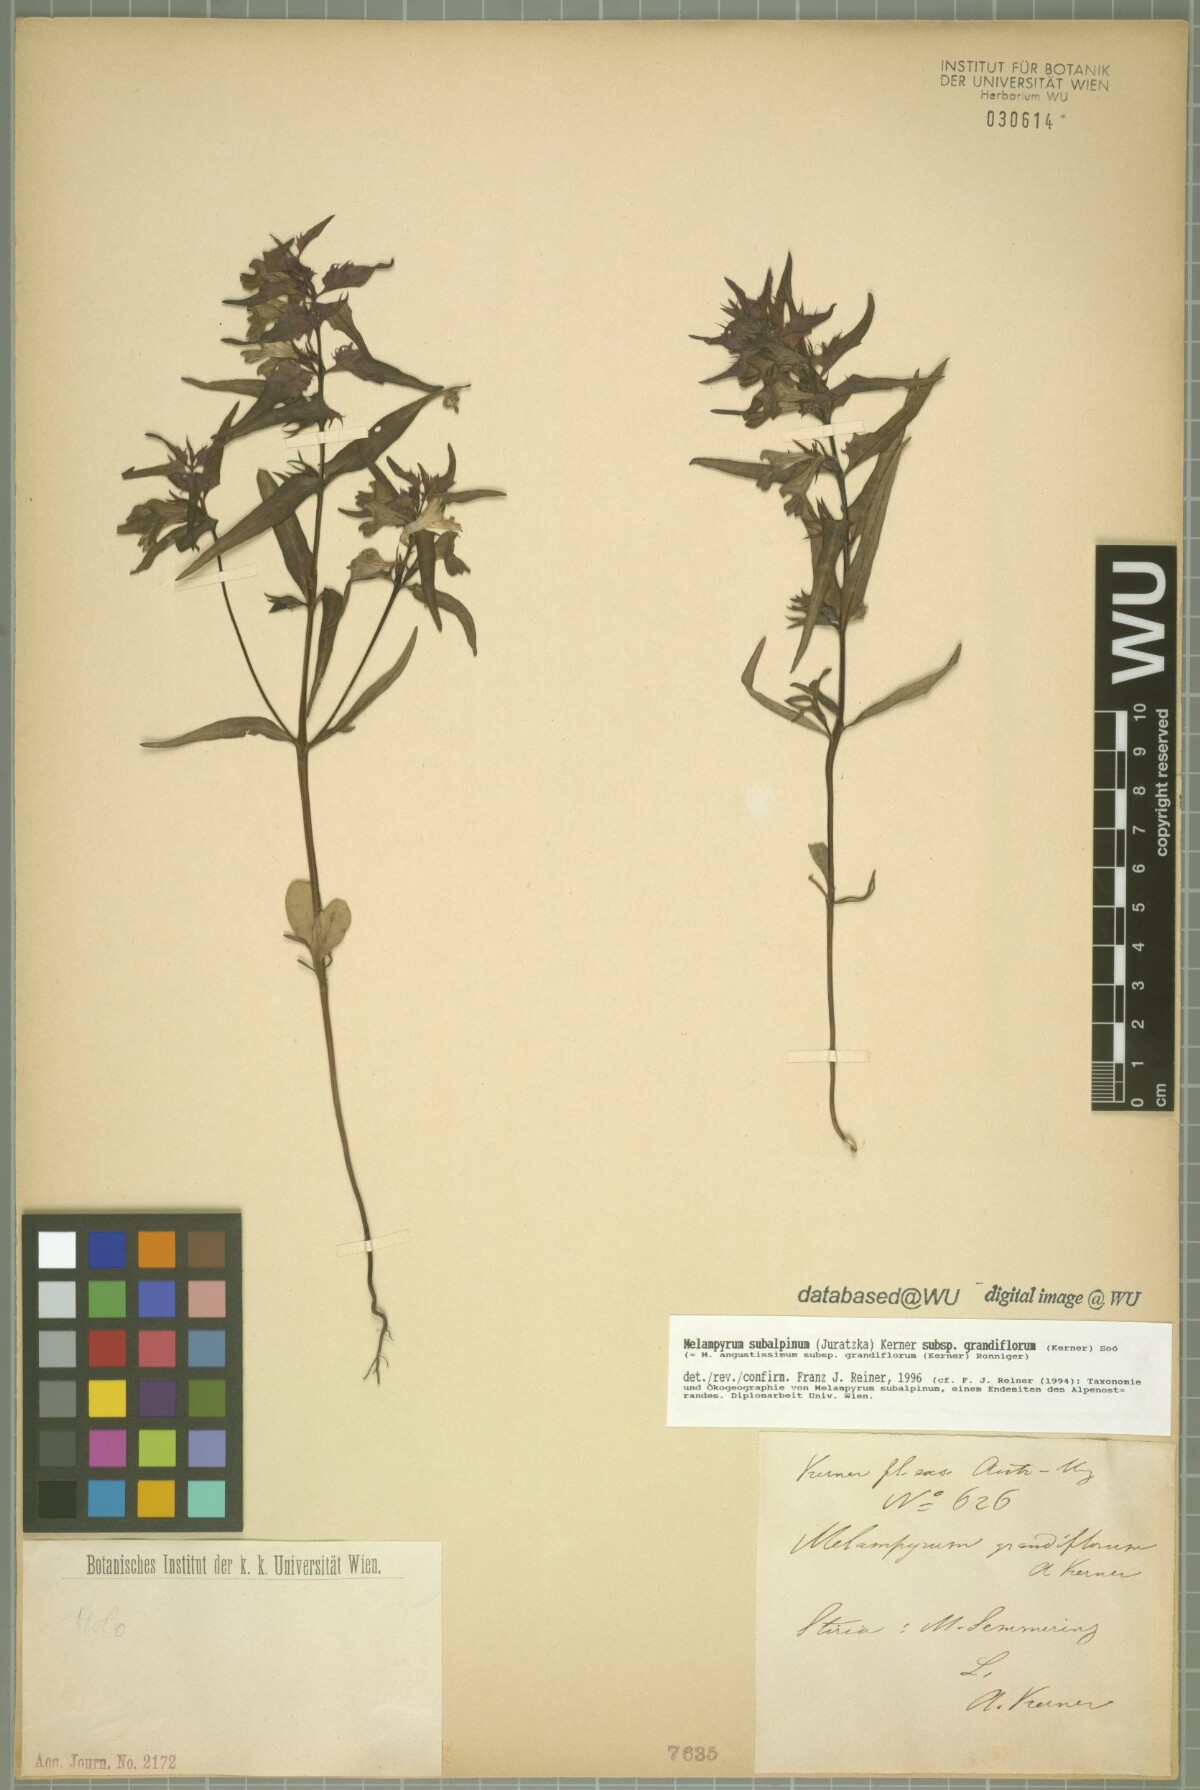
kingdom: Plantae
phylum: Tracheophyta
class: Magnoliopsida
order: Lamiales
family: Orobanchaceae
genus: Melampyrum
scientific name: Melampyrum subalpinum
